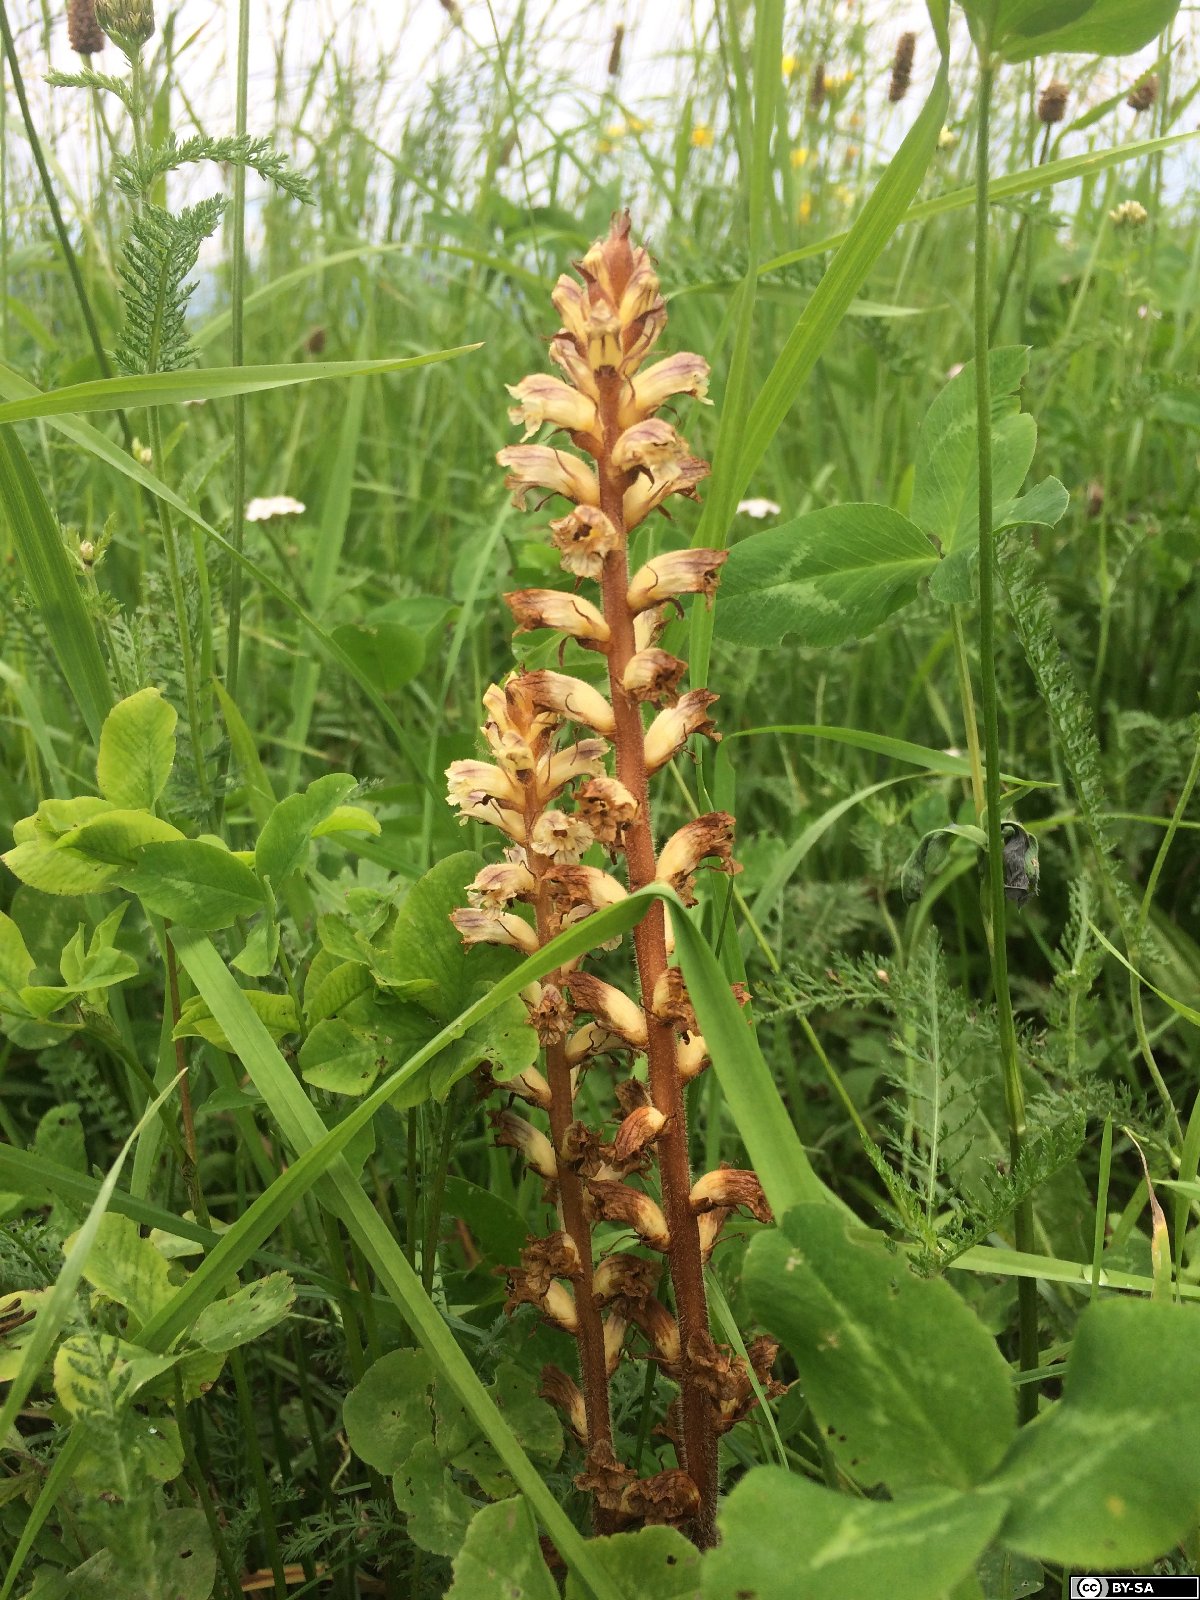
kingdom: Plantae
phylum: Tracheophyta
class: Magnoliopsida
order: Lamiales
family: Orobanchaceae
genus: Orobanche
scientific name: Orobanche minor
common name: Common broomrape
